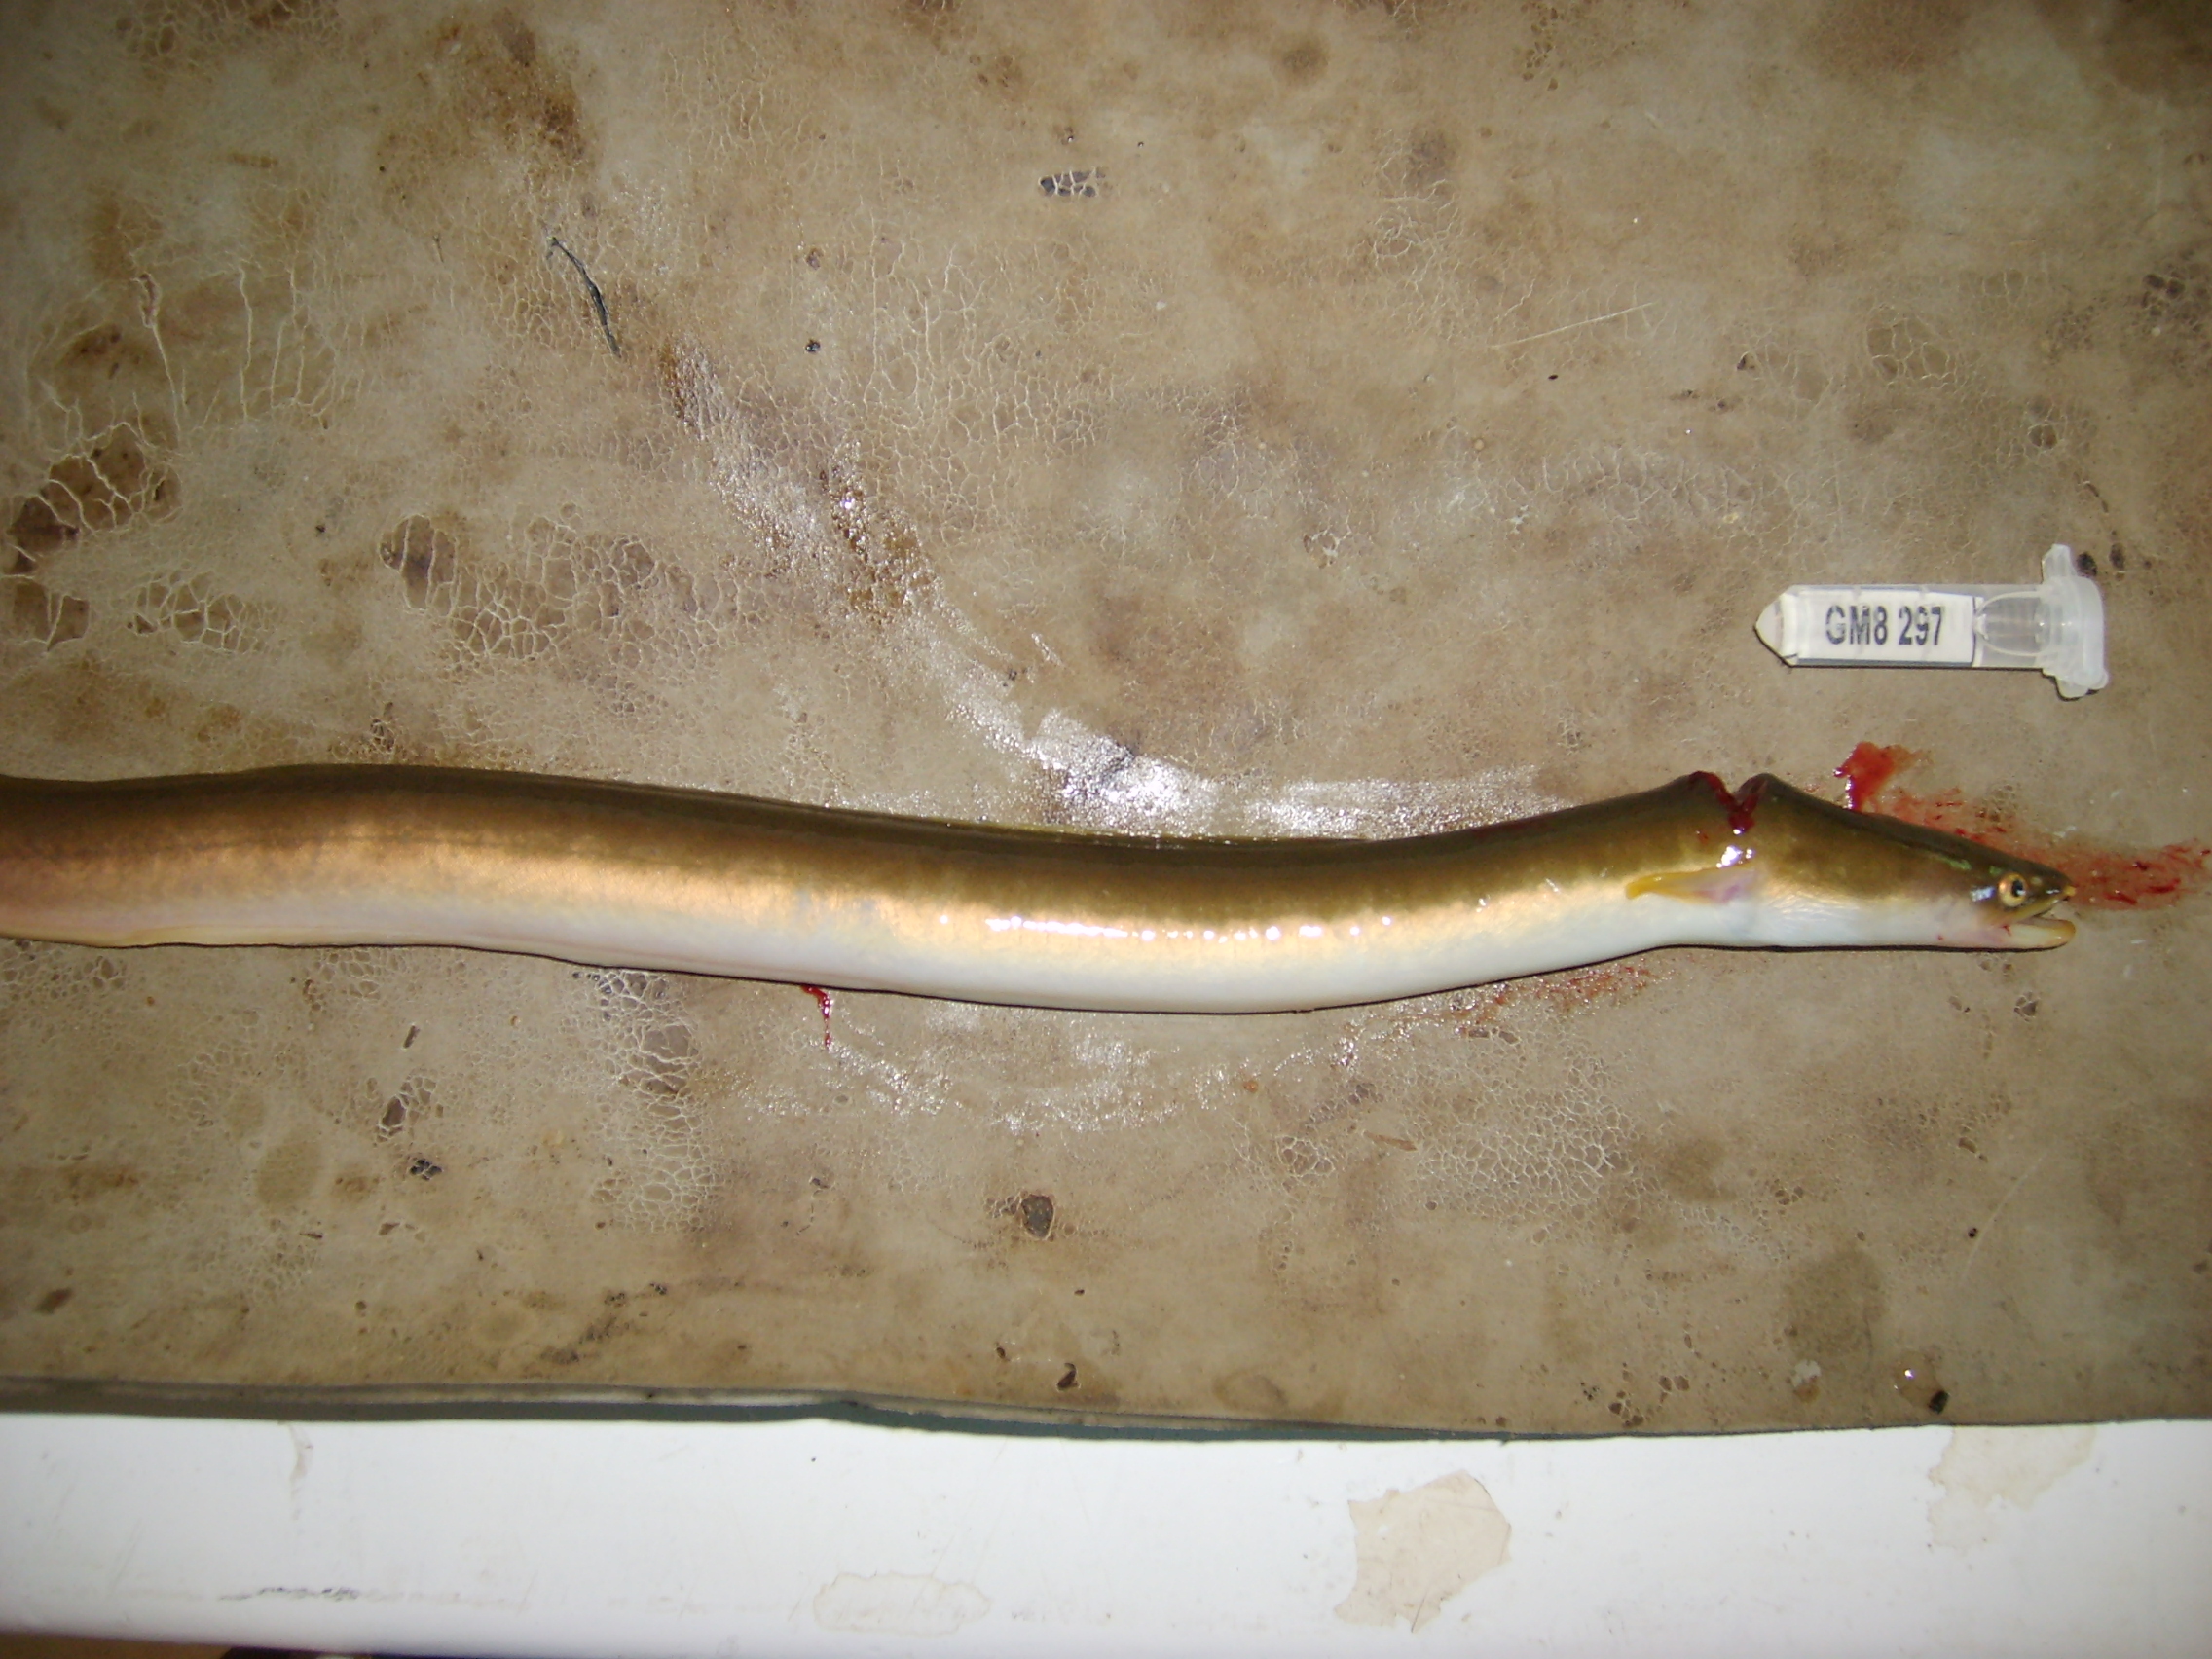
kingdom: Animalia
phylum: Chordata
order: Anguilliformes
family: Anguillidae
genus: Anguilla
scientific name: Anguilla mossambica
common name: African longfin eel
